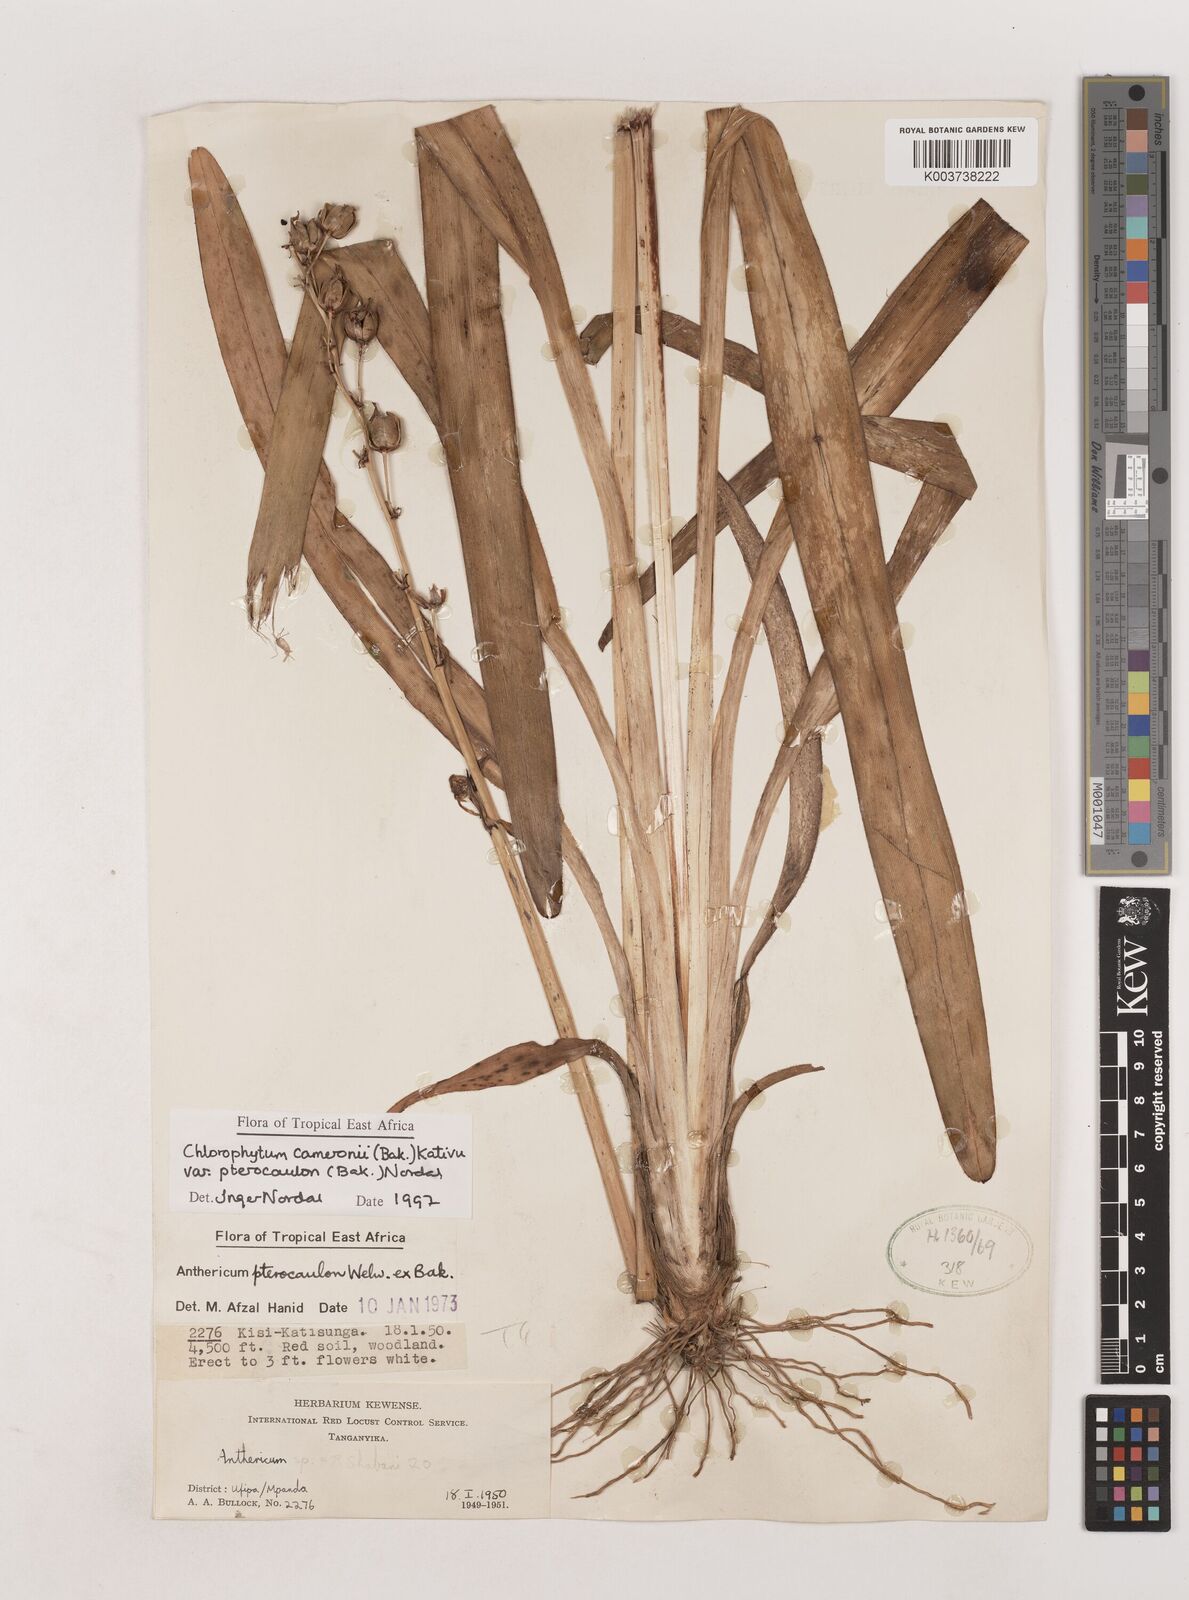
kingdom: Plantae
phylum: Tracheophyta
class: Liliopsida
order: Asparagales
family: Asparagaceae
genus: Chlorophytum
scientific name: Chlorophytum cameronii
